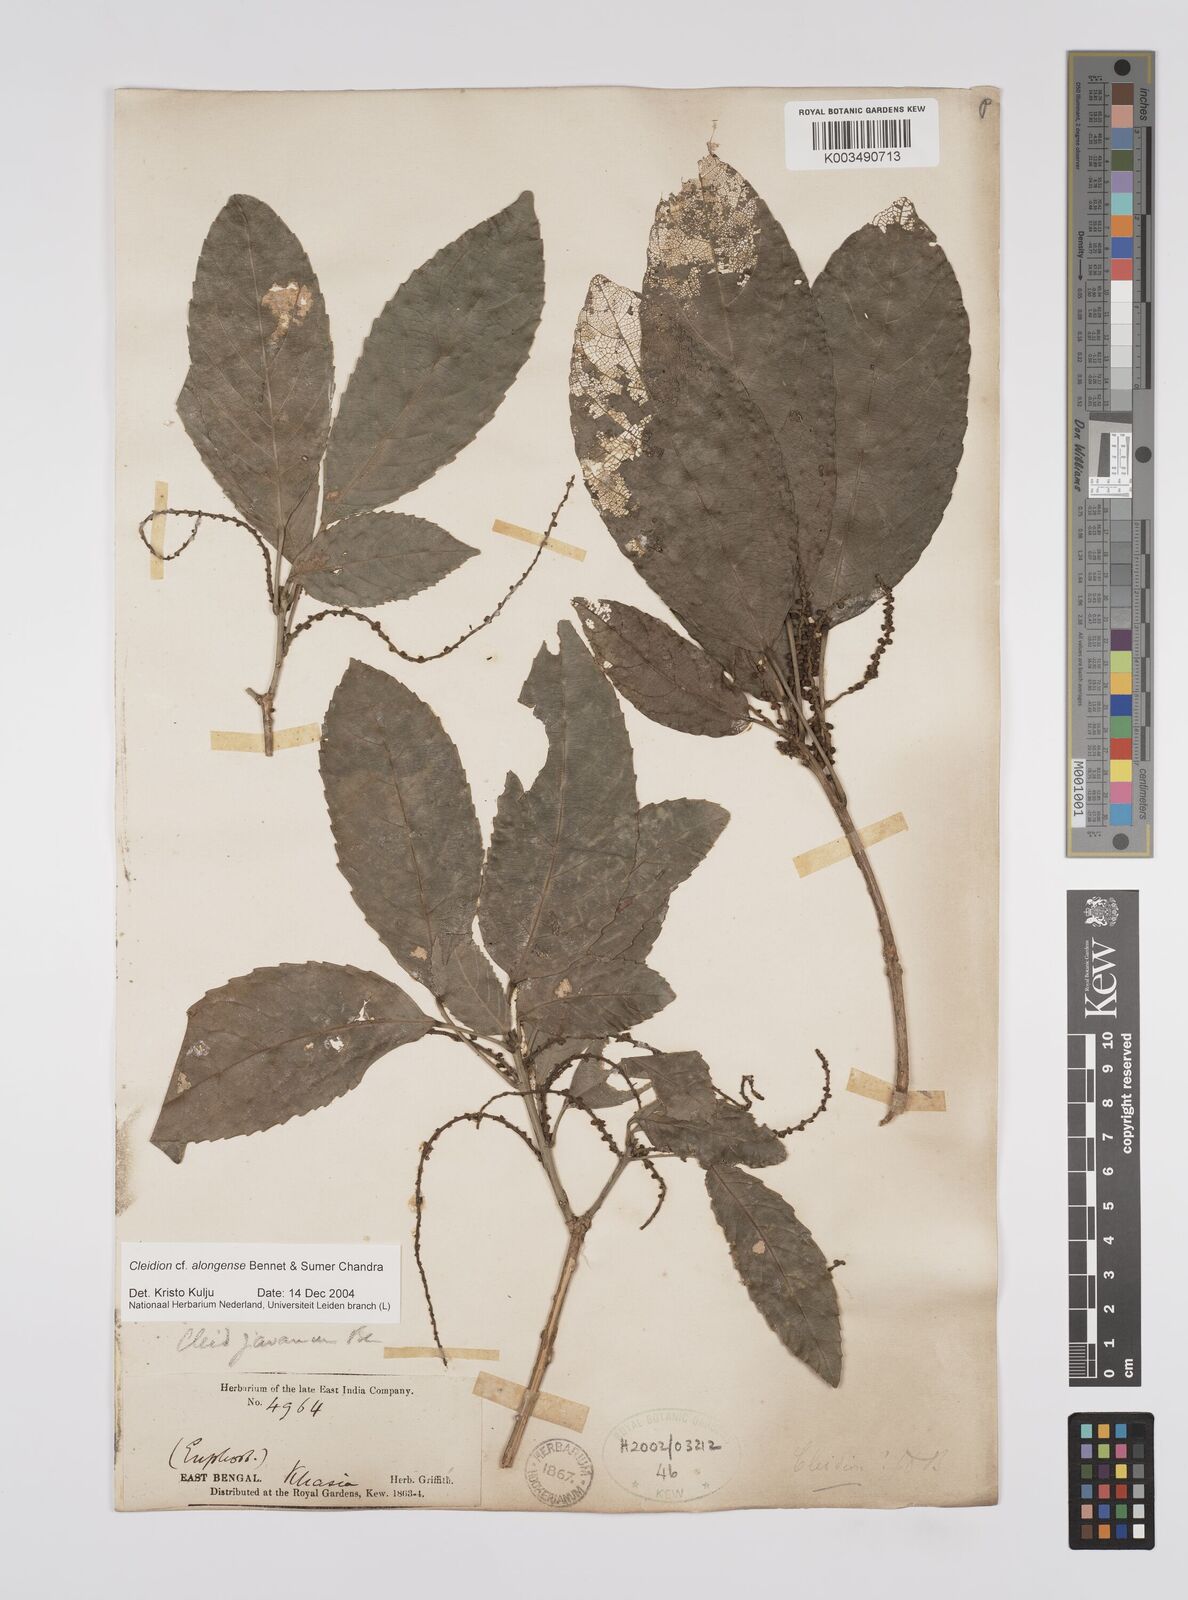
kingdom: Plantae
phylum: Tracheophyta
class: Magnoliopsida
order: Malpighiales
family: Euphorbiaceae
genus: Cleidion
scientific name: Cleidion javanicum
